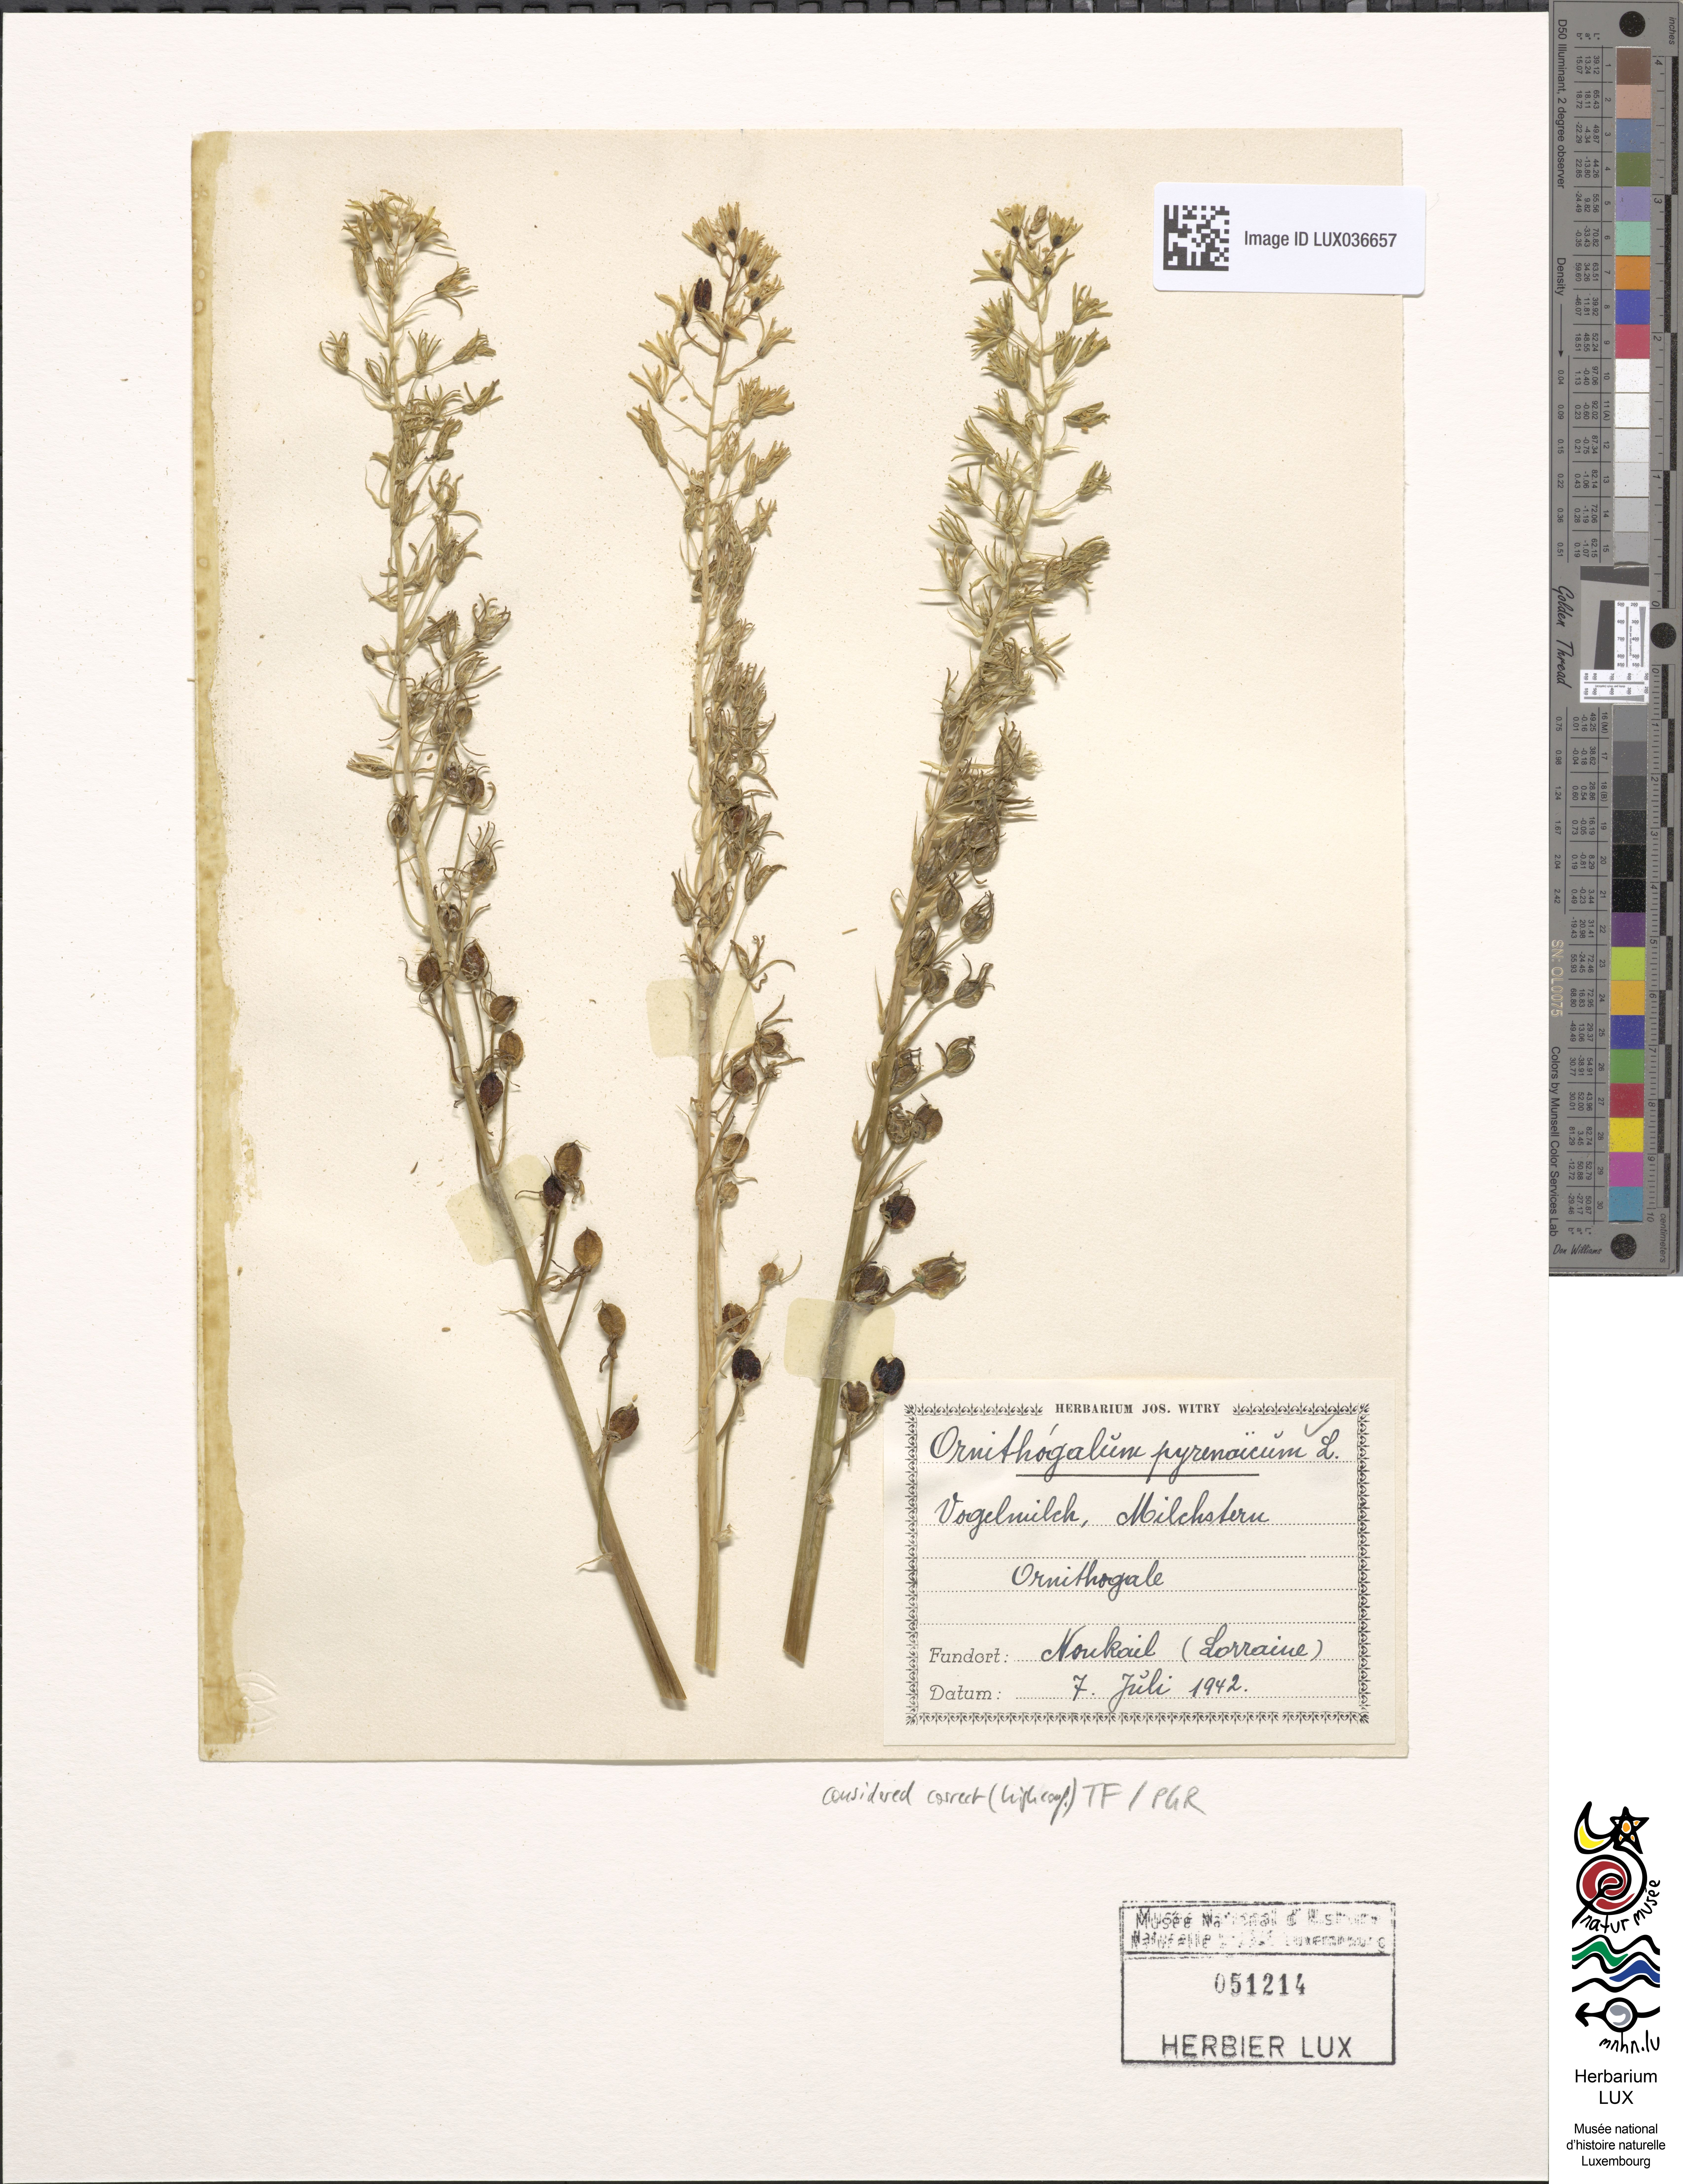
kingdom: Plantae
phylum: Tracheophyta
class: Liliopsida
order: Asparagales
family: Asparagaceae
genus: Ornithogalum
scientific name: Ornithogalum pyrenaicum
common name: Spiked star-of-bethlehem
